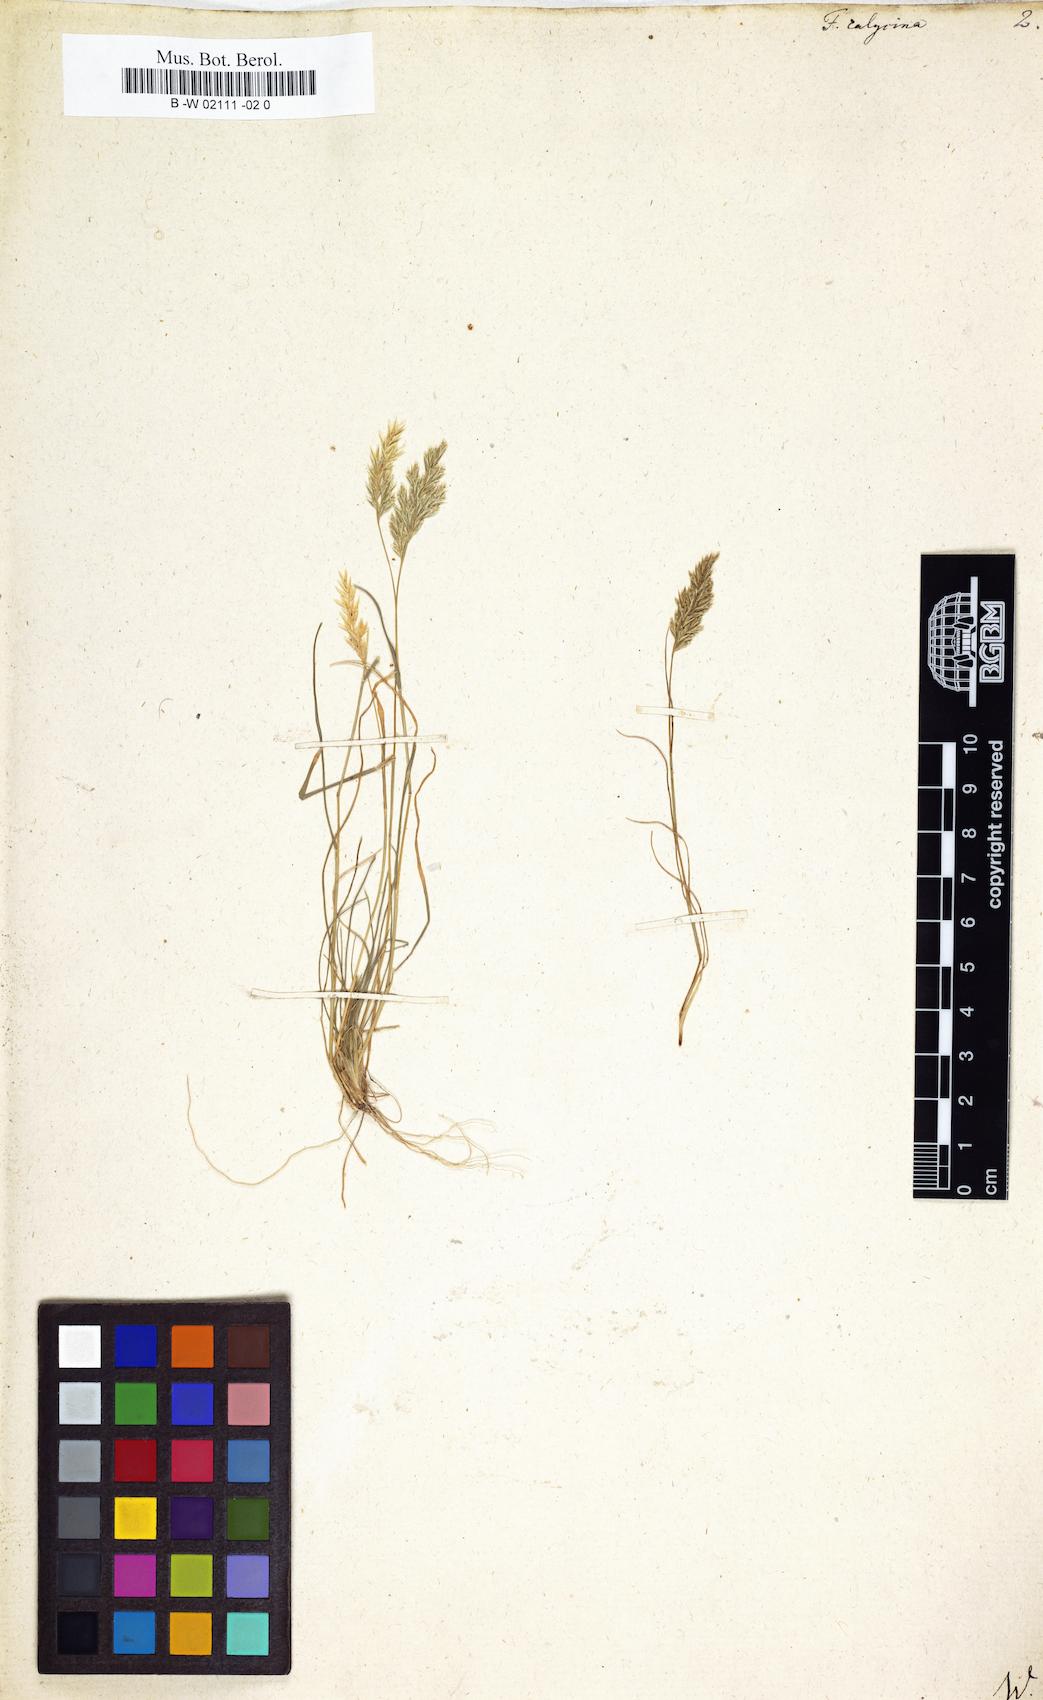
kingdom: Plantae
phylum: Tracheophyta
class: Liliopsida
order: Poales
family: Poaceae
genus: Schismus
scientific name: Schismus barbatus
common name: Kelch-grass
